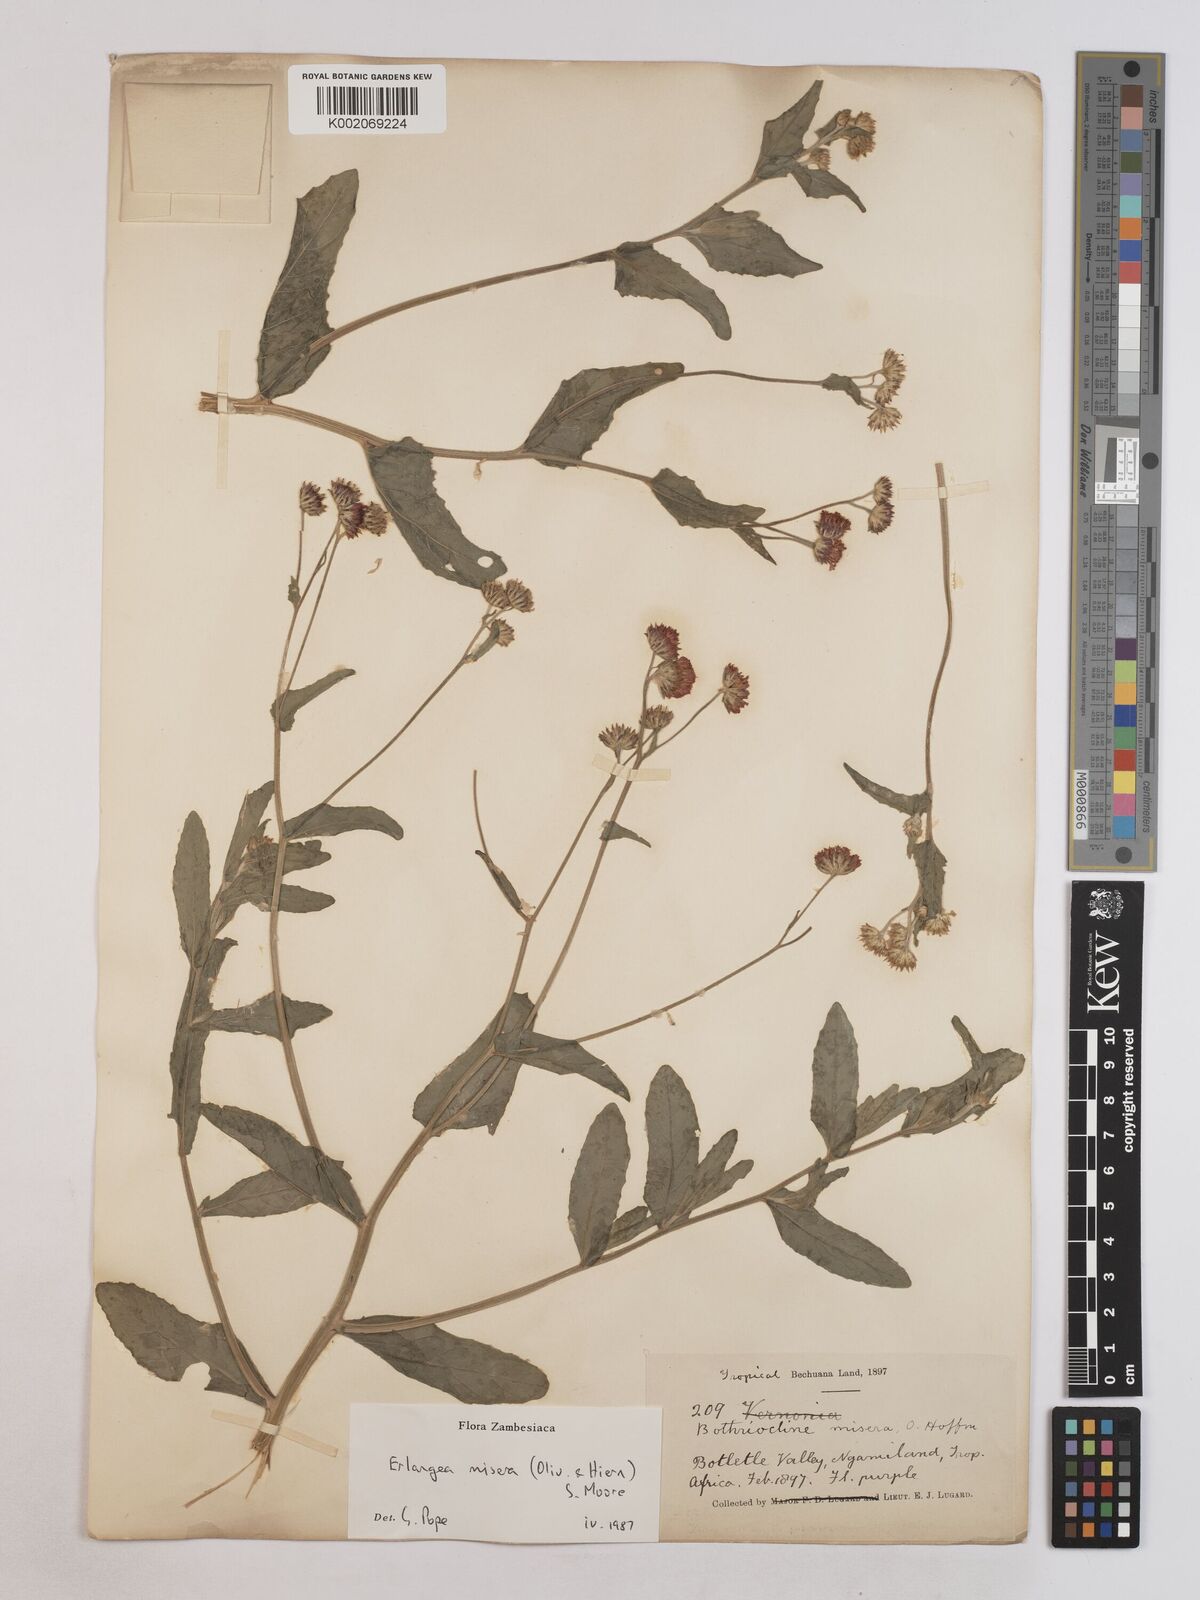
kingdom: Plantae
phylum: Tracheophyta
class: Magnoliopsida
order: Asterales
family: Asteraceae
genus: Erlangea
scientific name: Erlangea misera
